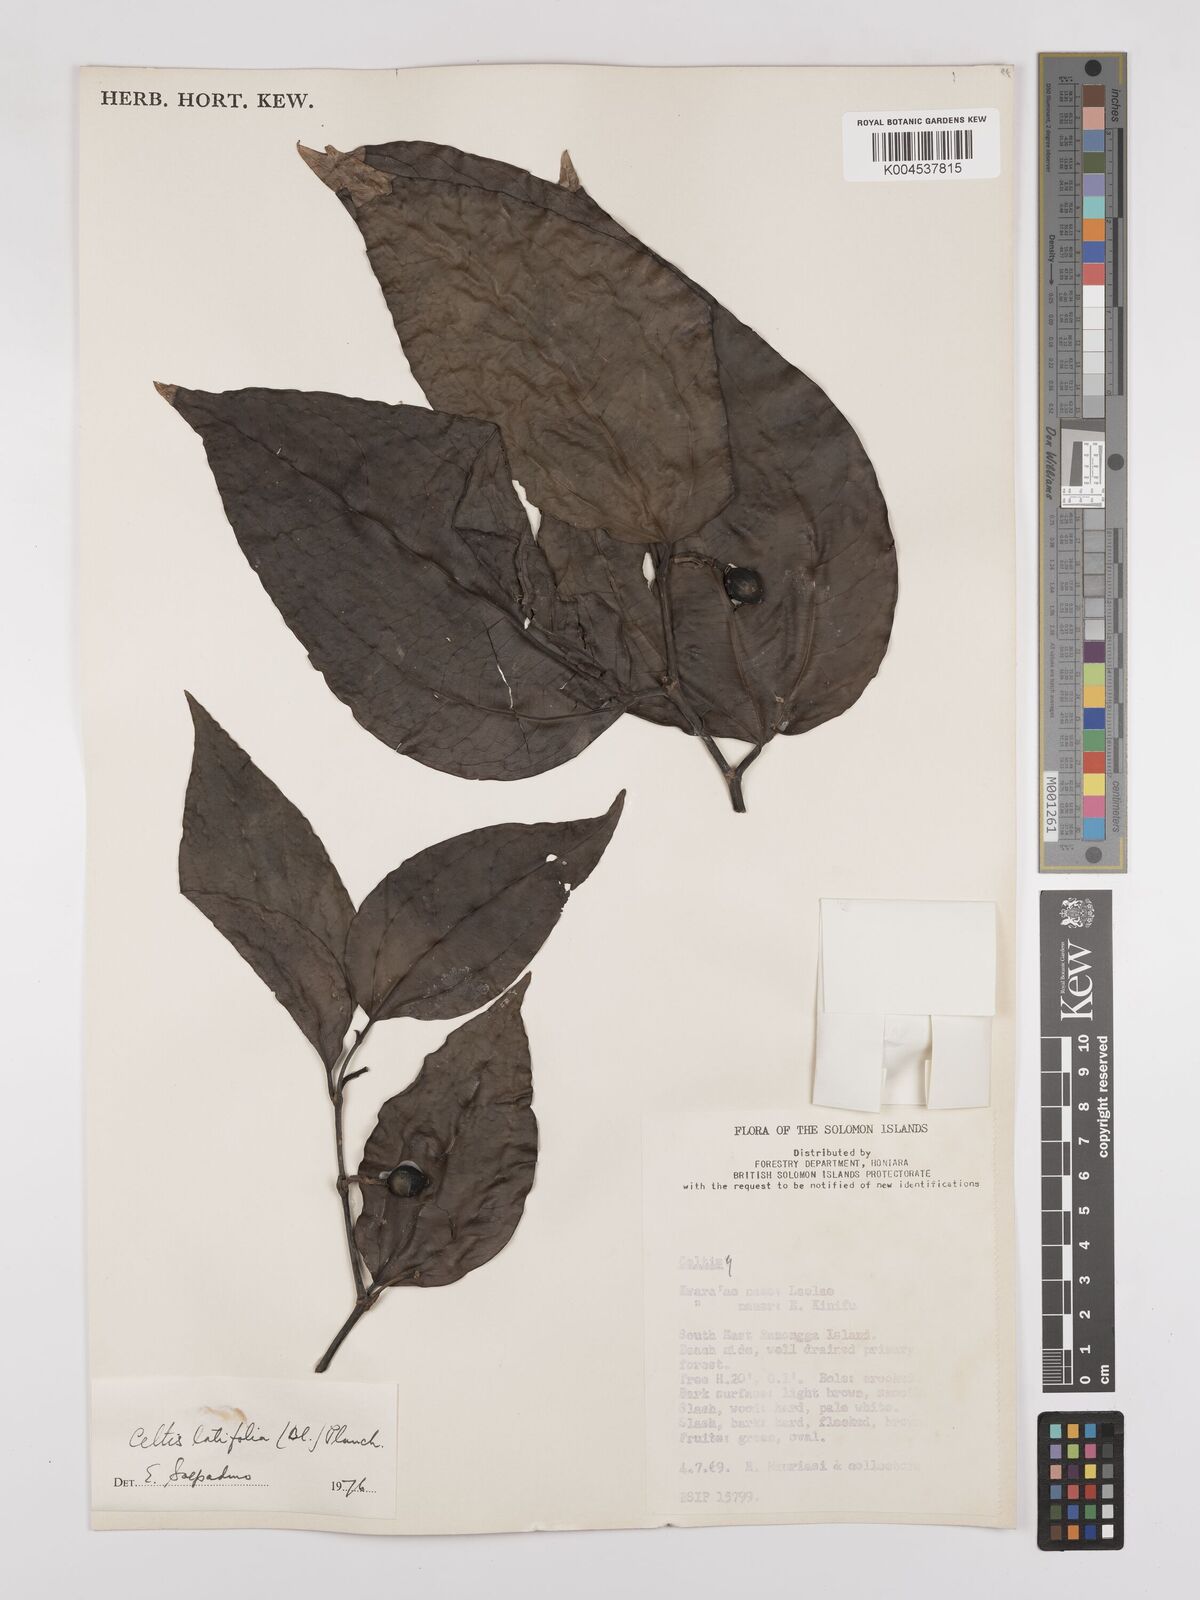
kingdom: Plantae
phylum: Tracheophyta
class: Magnoliopsida
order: Rosales
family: Cannabaceae
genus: Celtis
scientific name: Celtis latifolia
